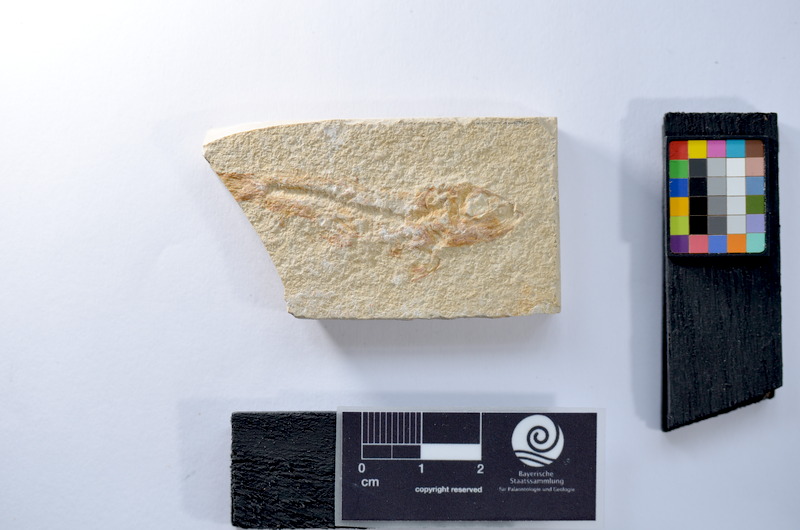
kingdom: Animalia
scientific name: Animalia
